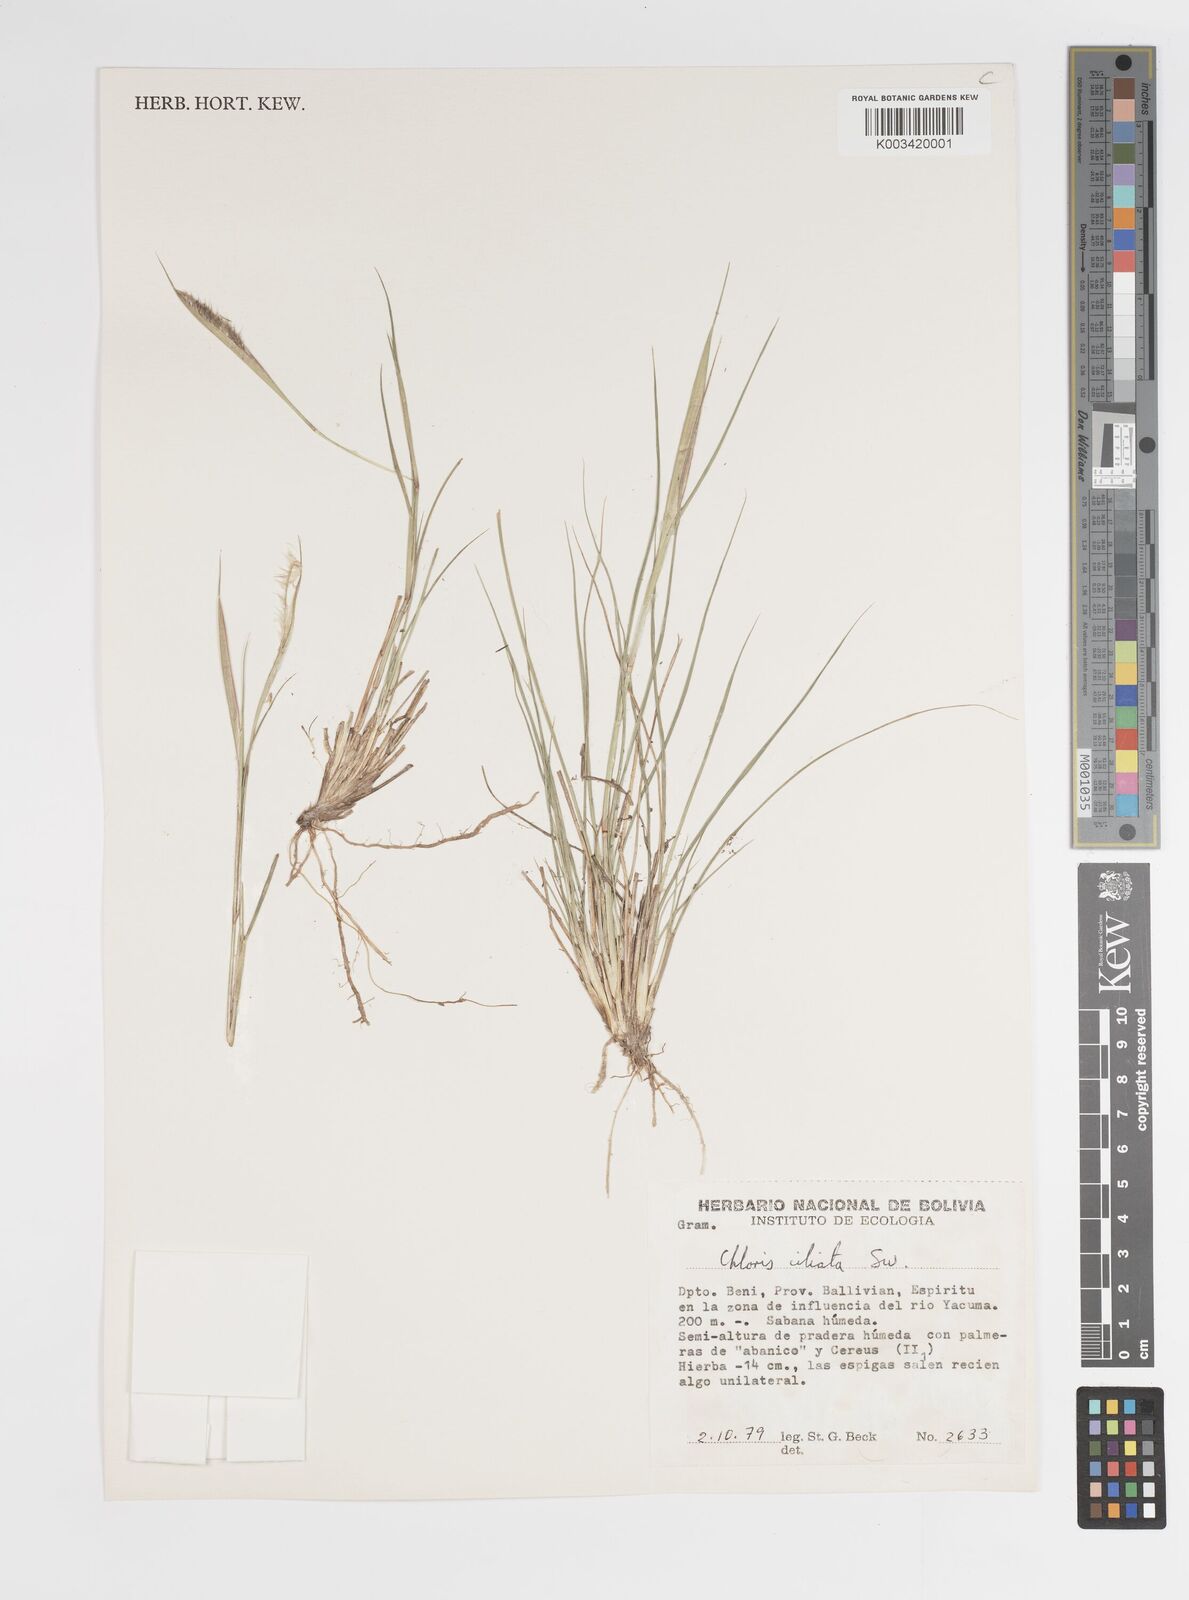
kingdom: Plantae
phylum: Tracheophyta
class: Liliopsida
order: Poales
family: Poaceae
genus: Stapfochloa
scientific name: Stapfochloa parodiana
